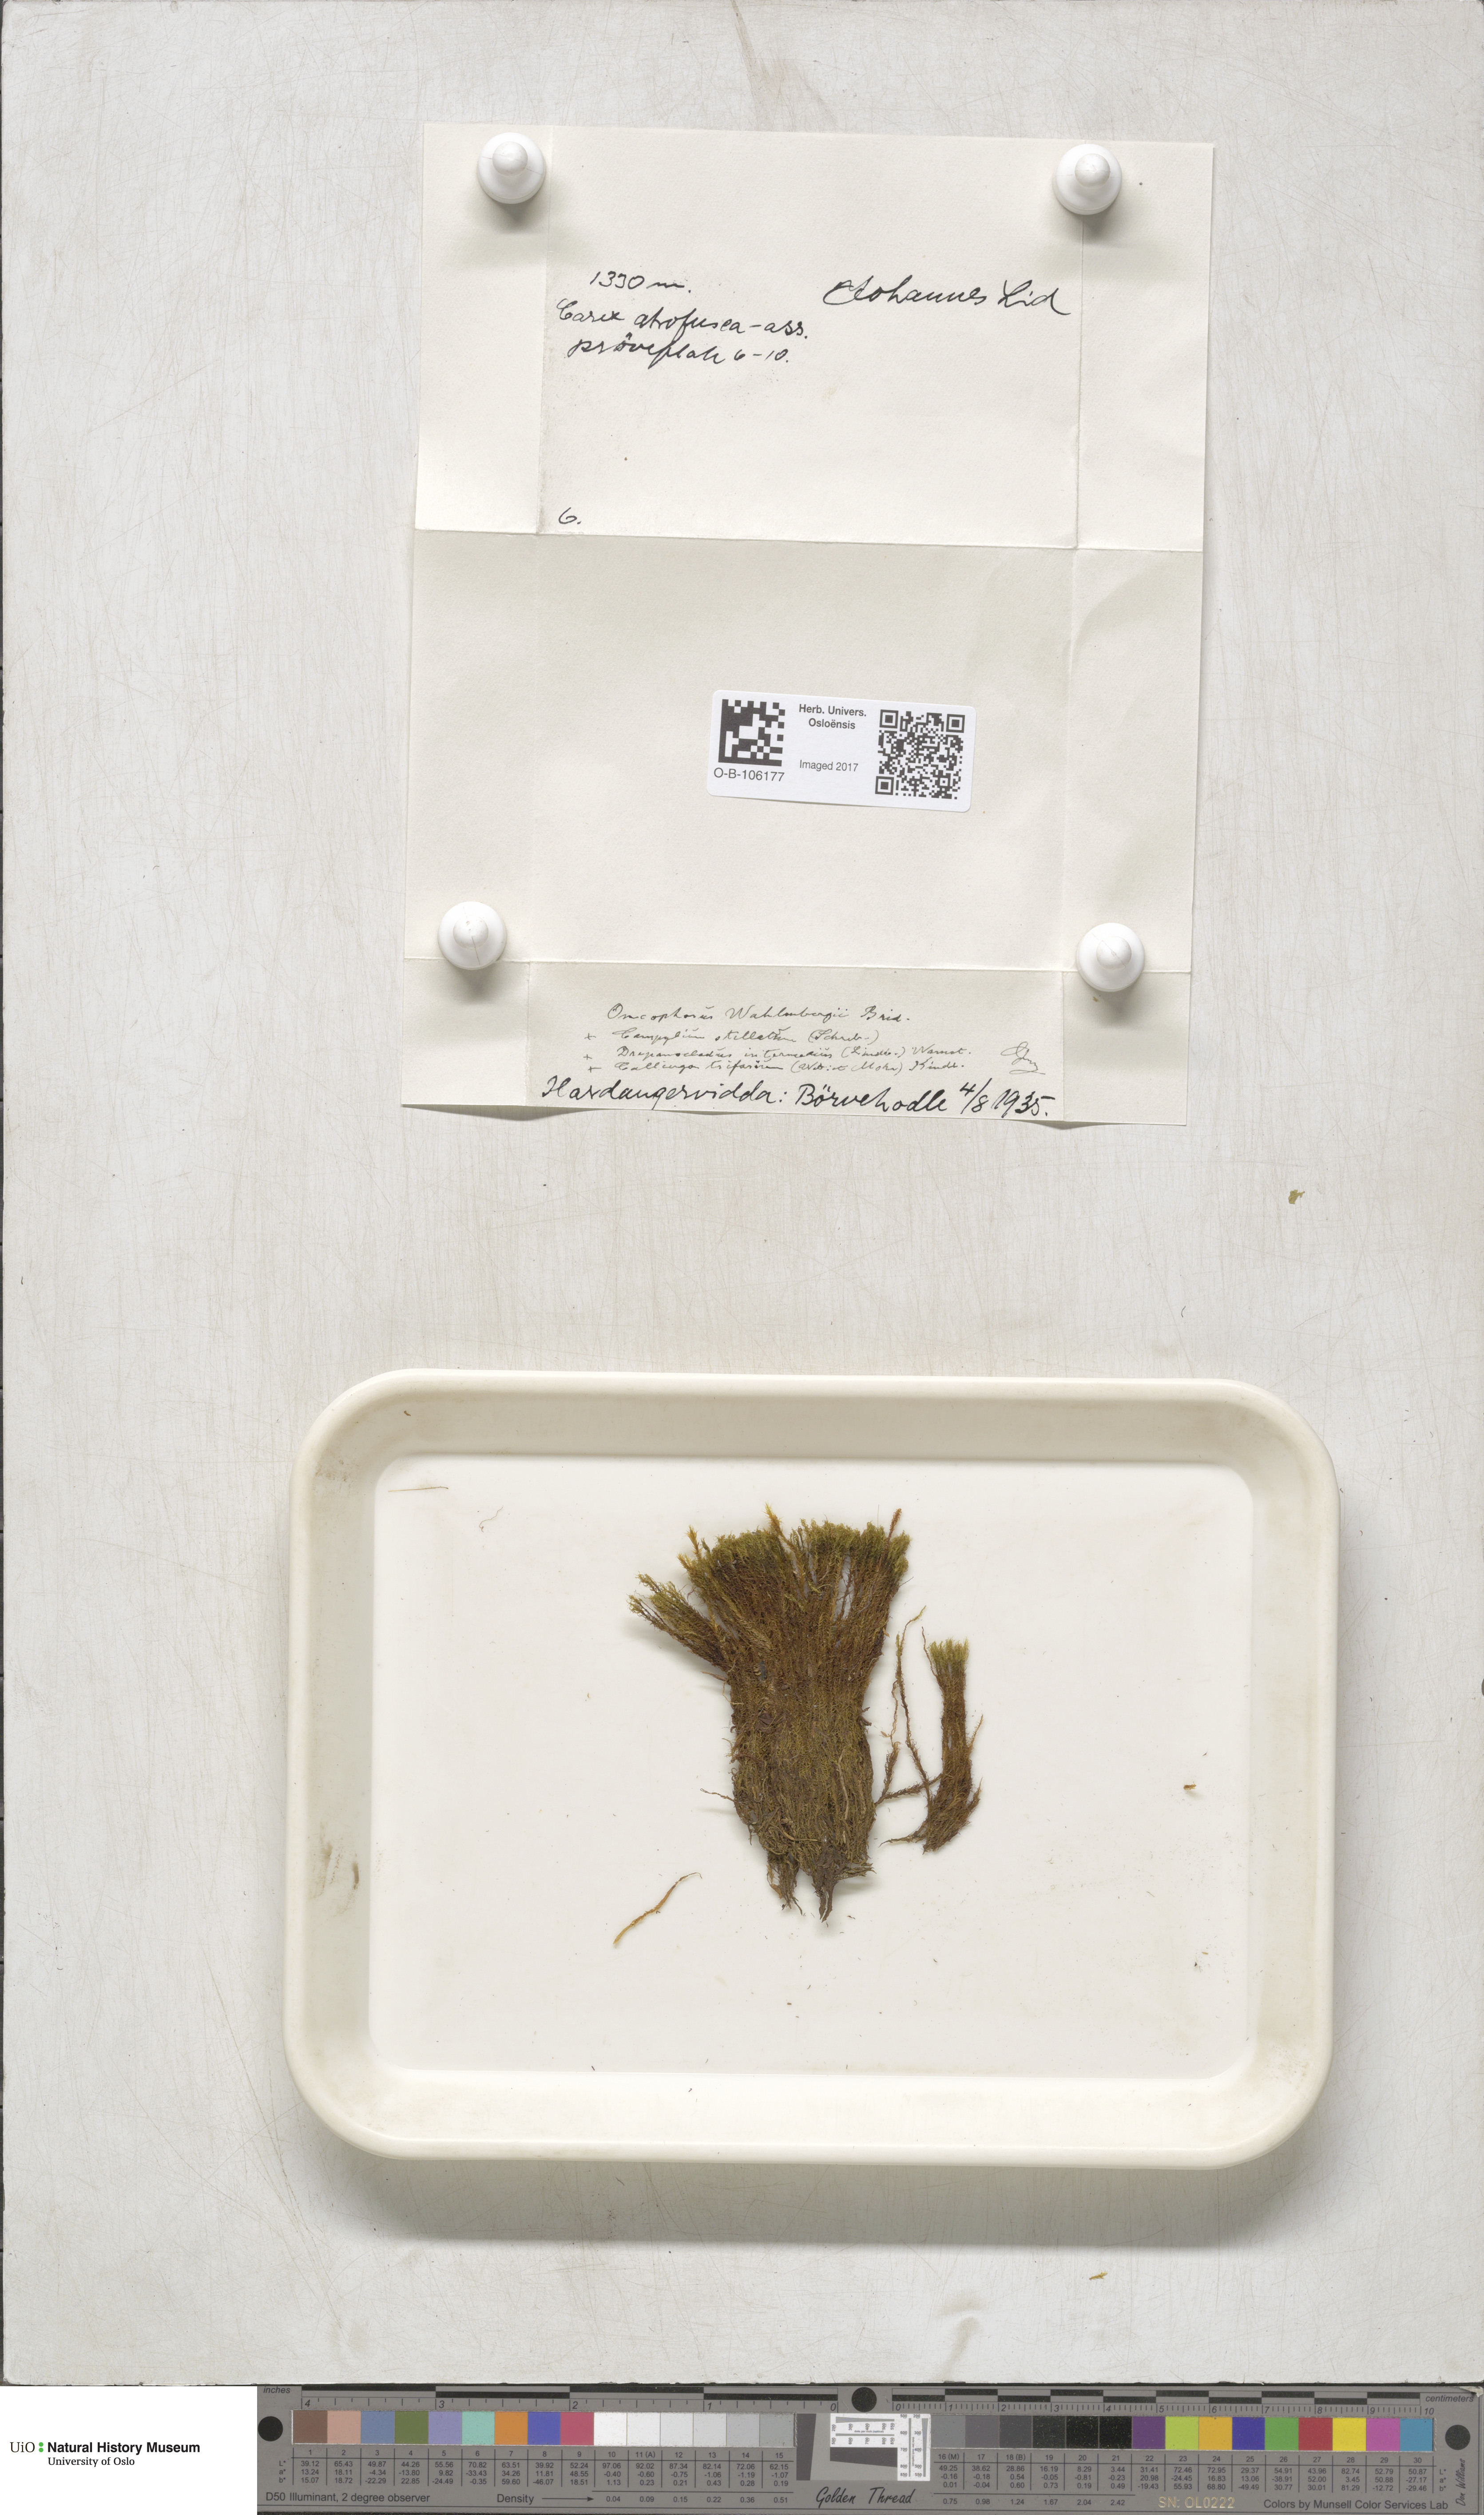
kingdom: Plantae
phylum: Bryophyta
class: Bryopsida
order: Dicranales
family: Rhabdoweisiaceae
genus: Brideliella
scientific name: Brideliella wahlenbergii
